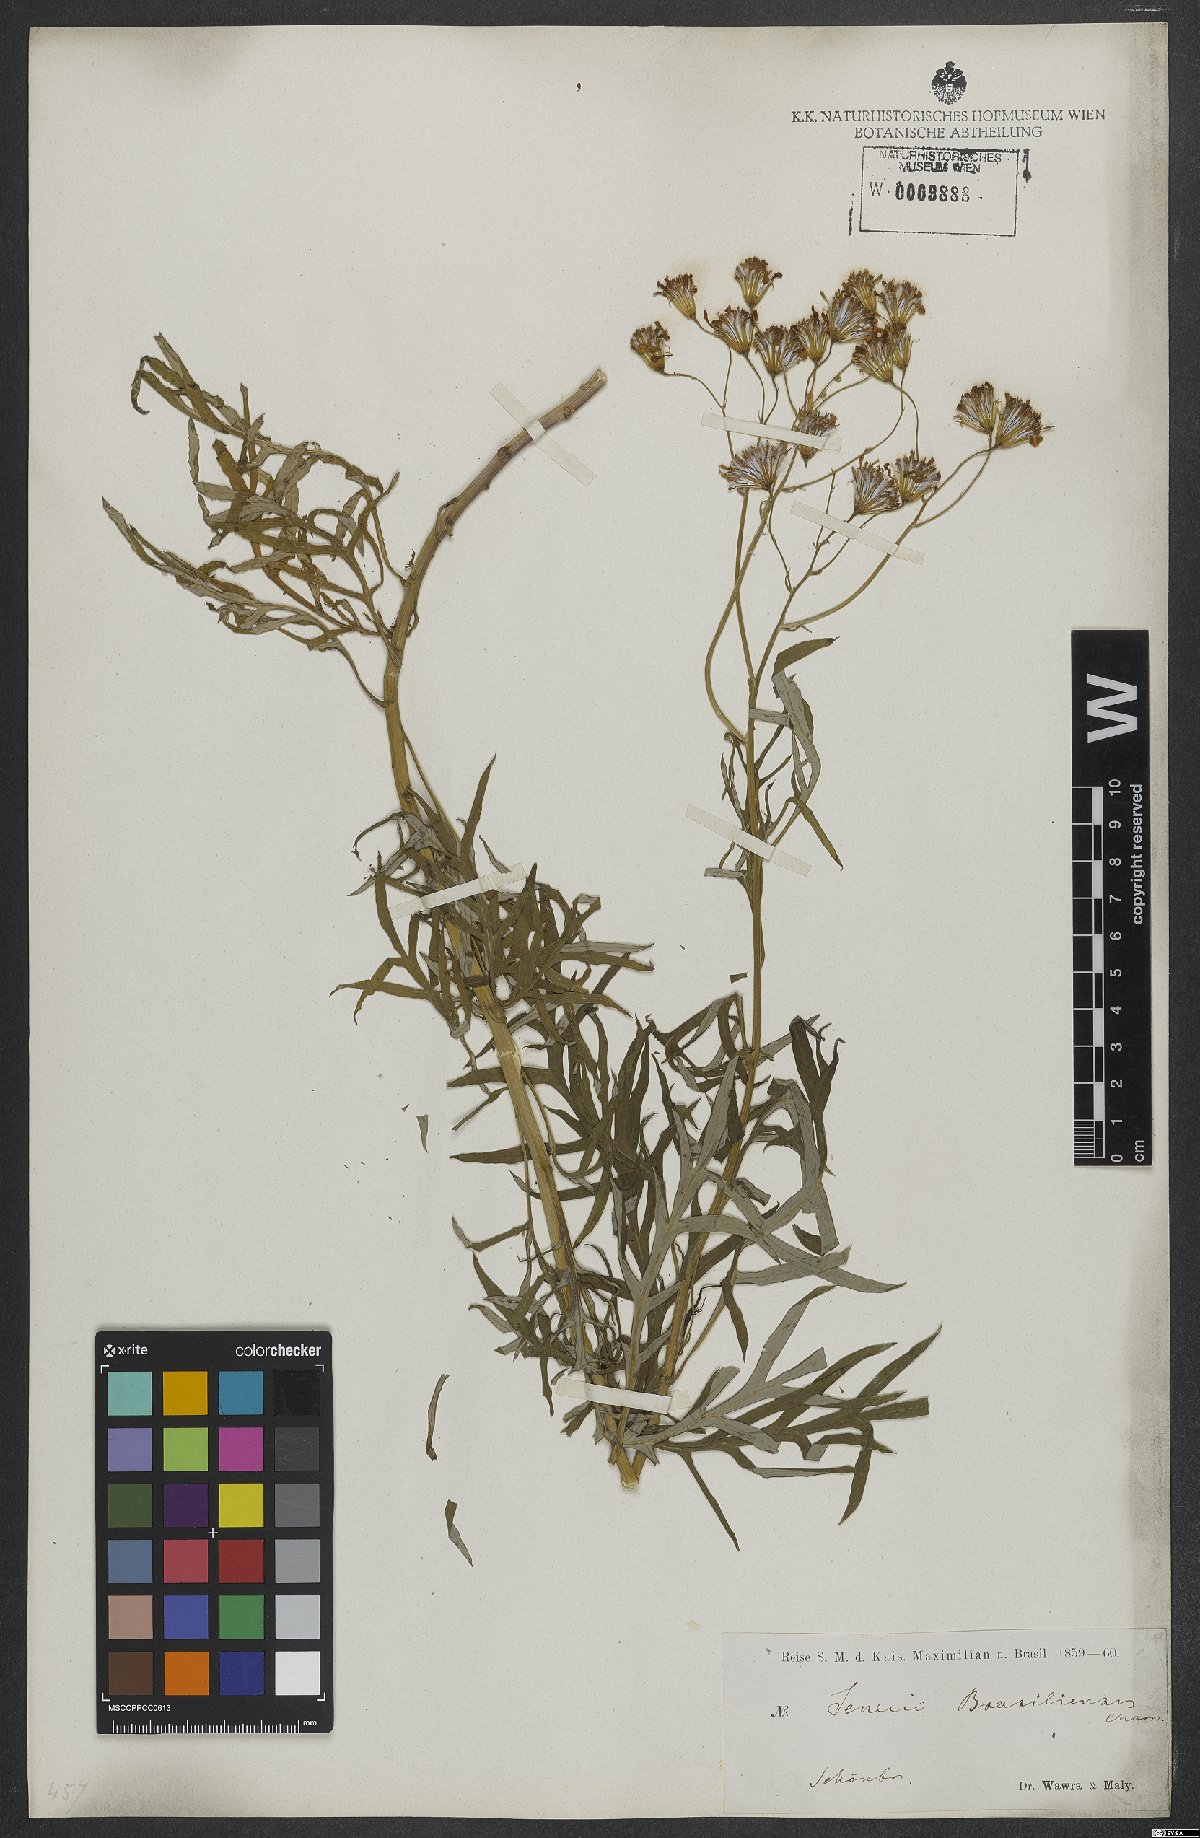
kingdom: Plantae
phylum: Tracheophyta
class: Magnoliopsida
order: Asterales
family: Asteraceae
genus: Senecio
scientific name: Senecio brasiliensis
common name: Hemp-leaf ragwort
